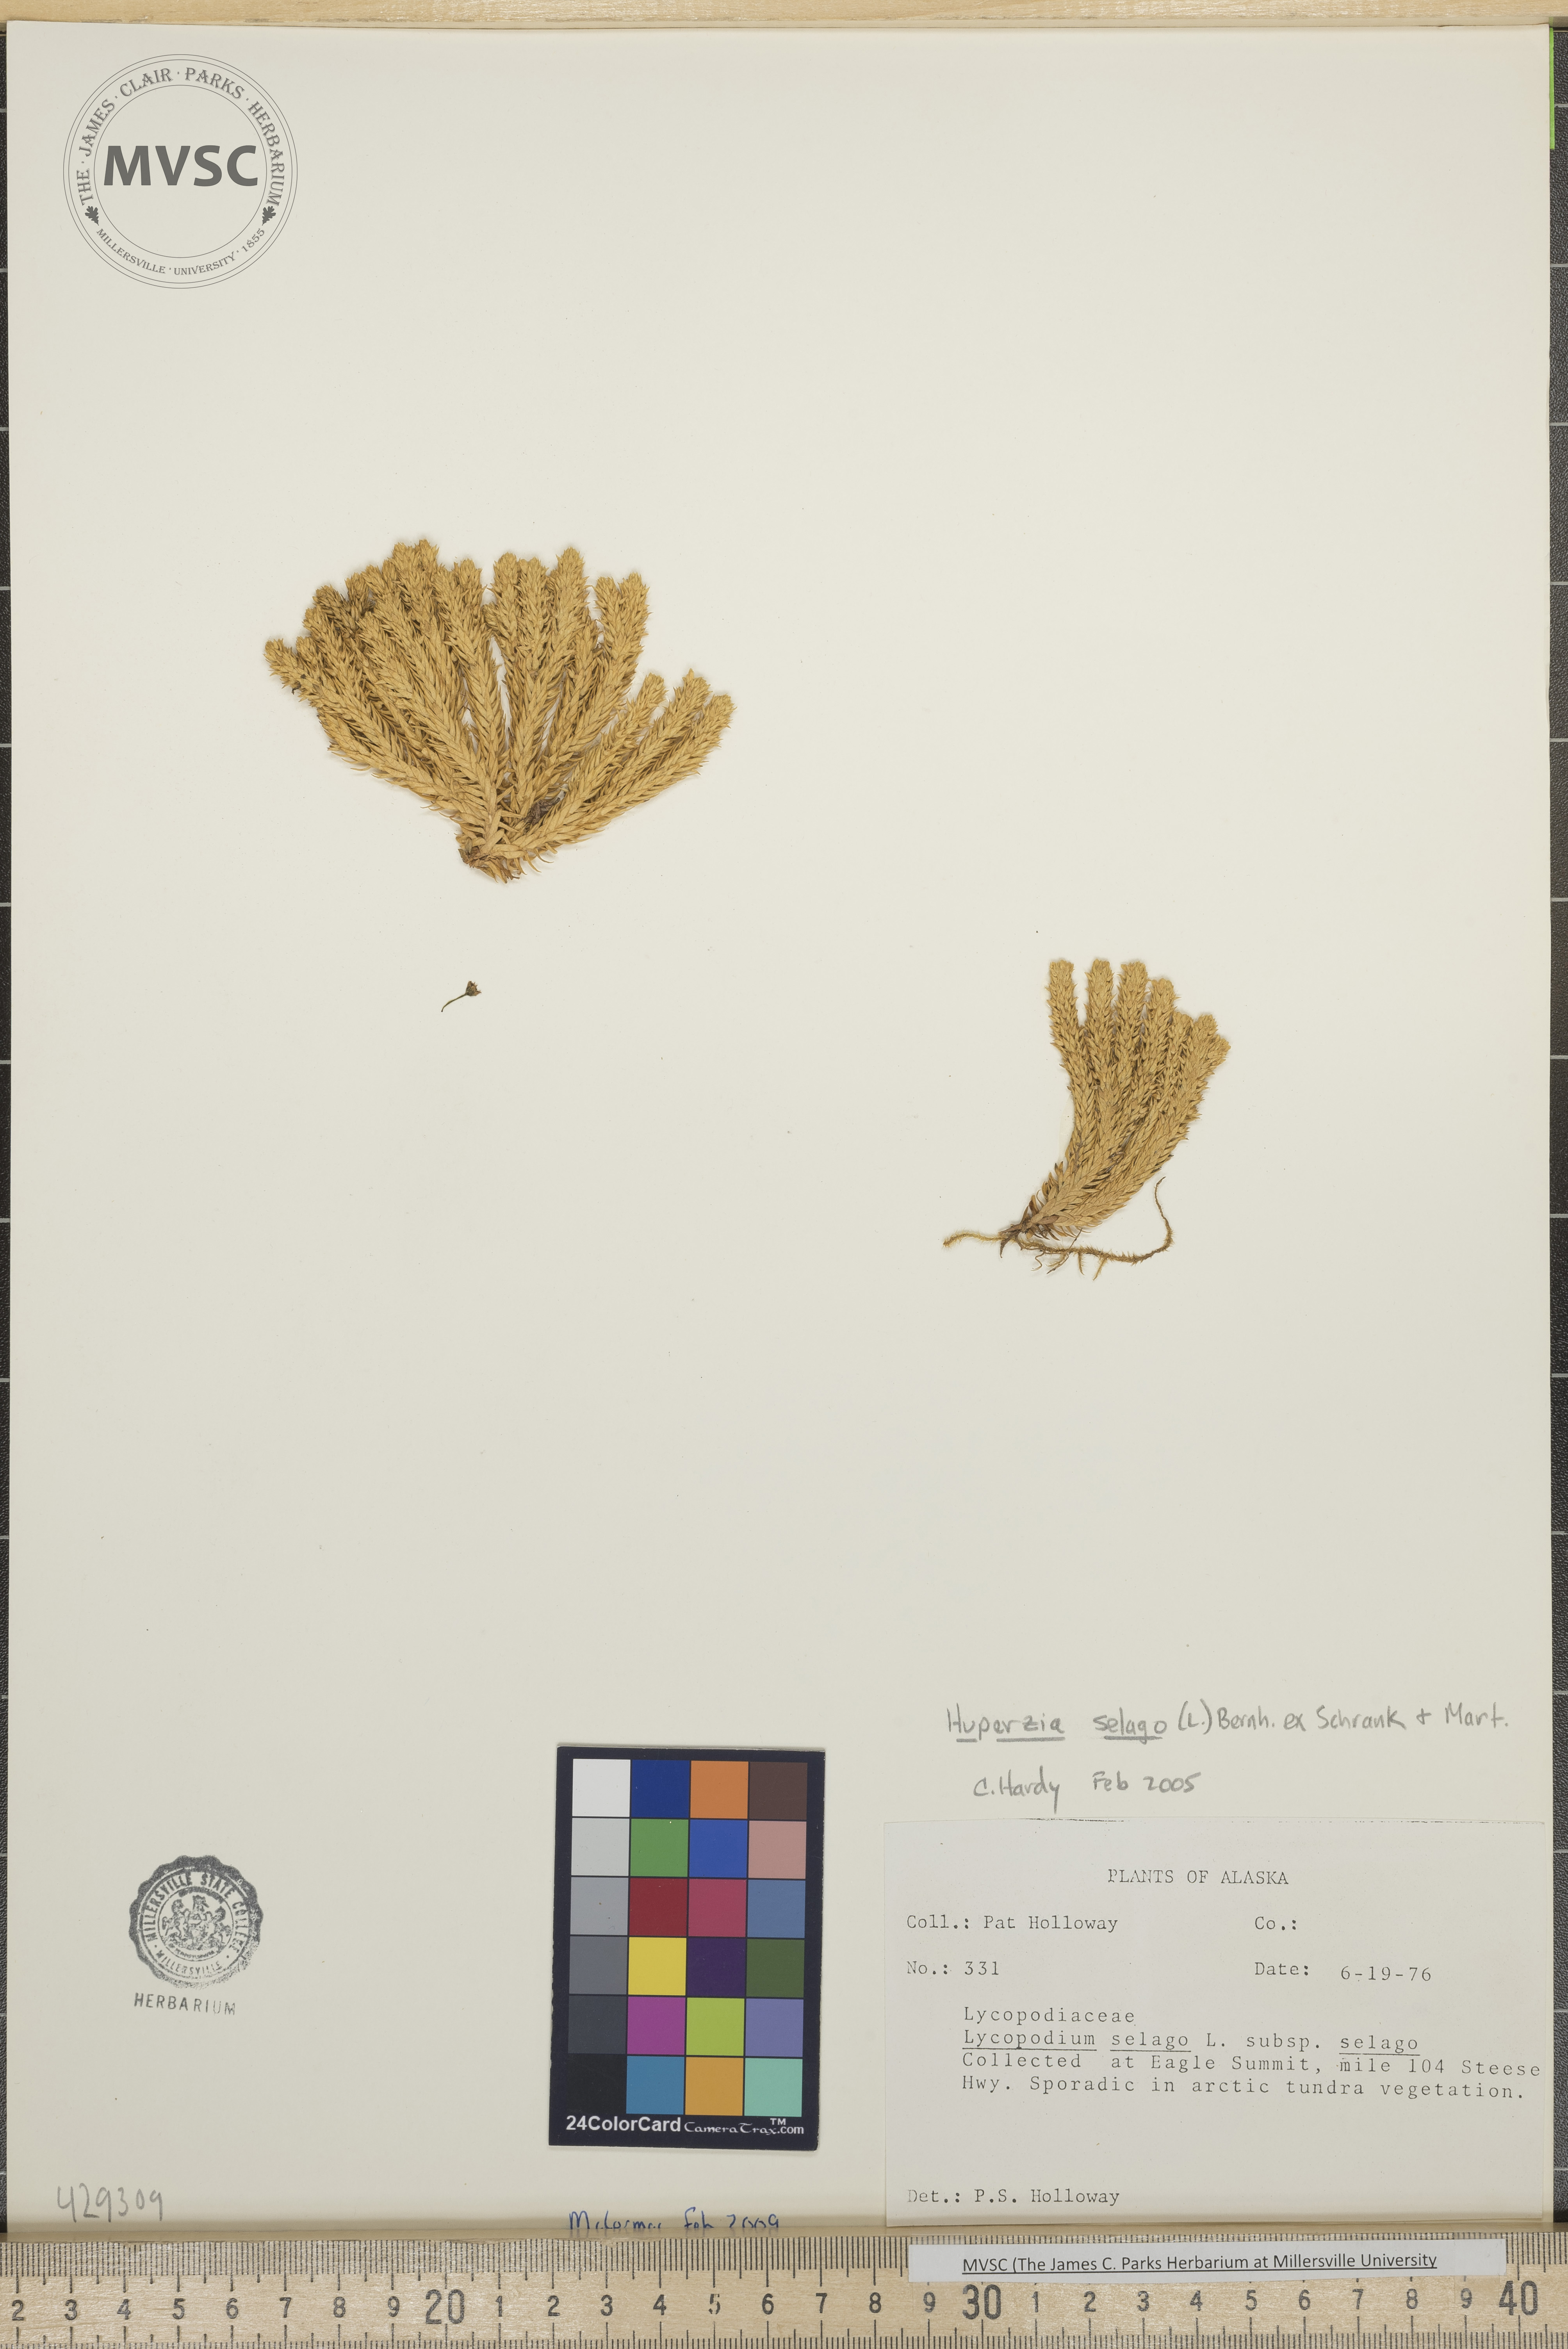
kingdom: Plantae
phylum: Tracheophyta
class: Lycopodiopsida
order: Lycopodiales
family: Lycopodiaceae
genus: Huperzia
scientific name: Huperzia selago
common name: Northern firmoss
